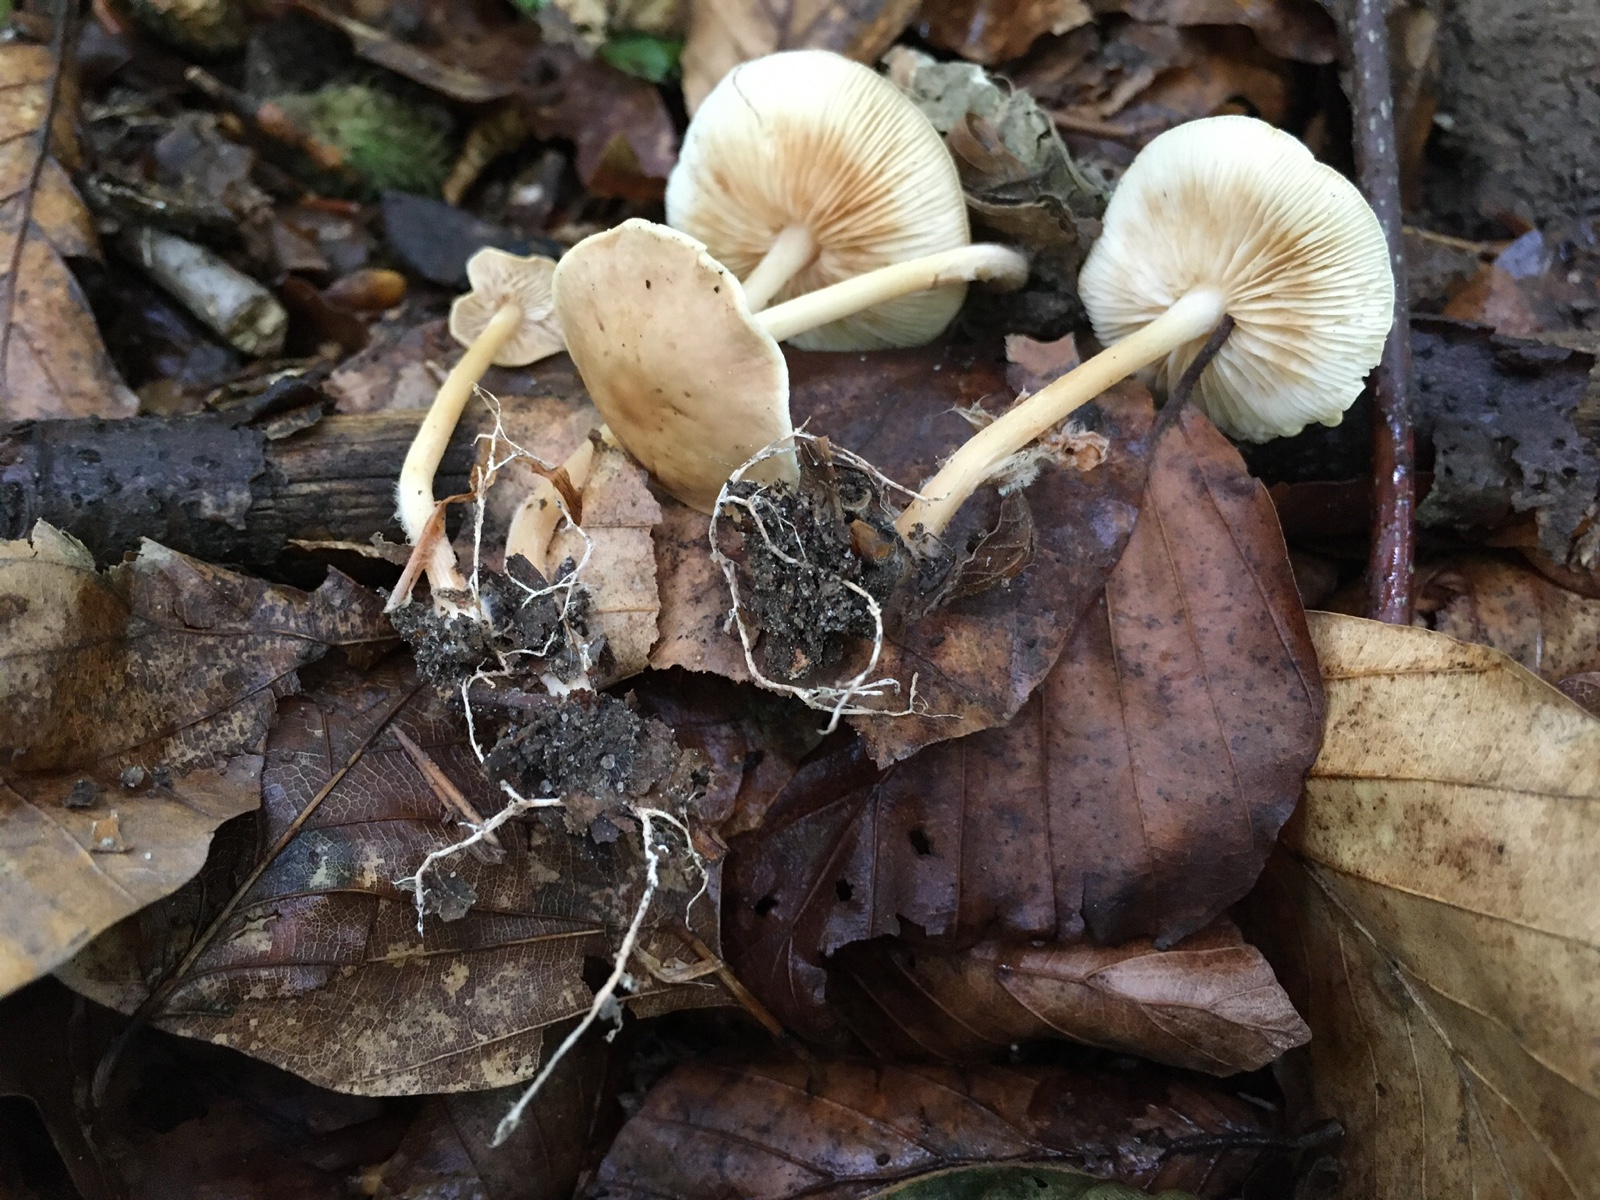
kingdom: Fungi
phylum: Basidiomycota
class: Agaricomycetes
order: Agaricales
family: Omphalotaceae
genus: Gymnopus
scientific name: Gymnopus dryophilus
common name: løv-fladhat
